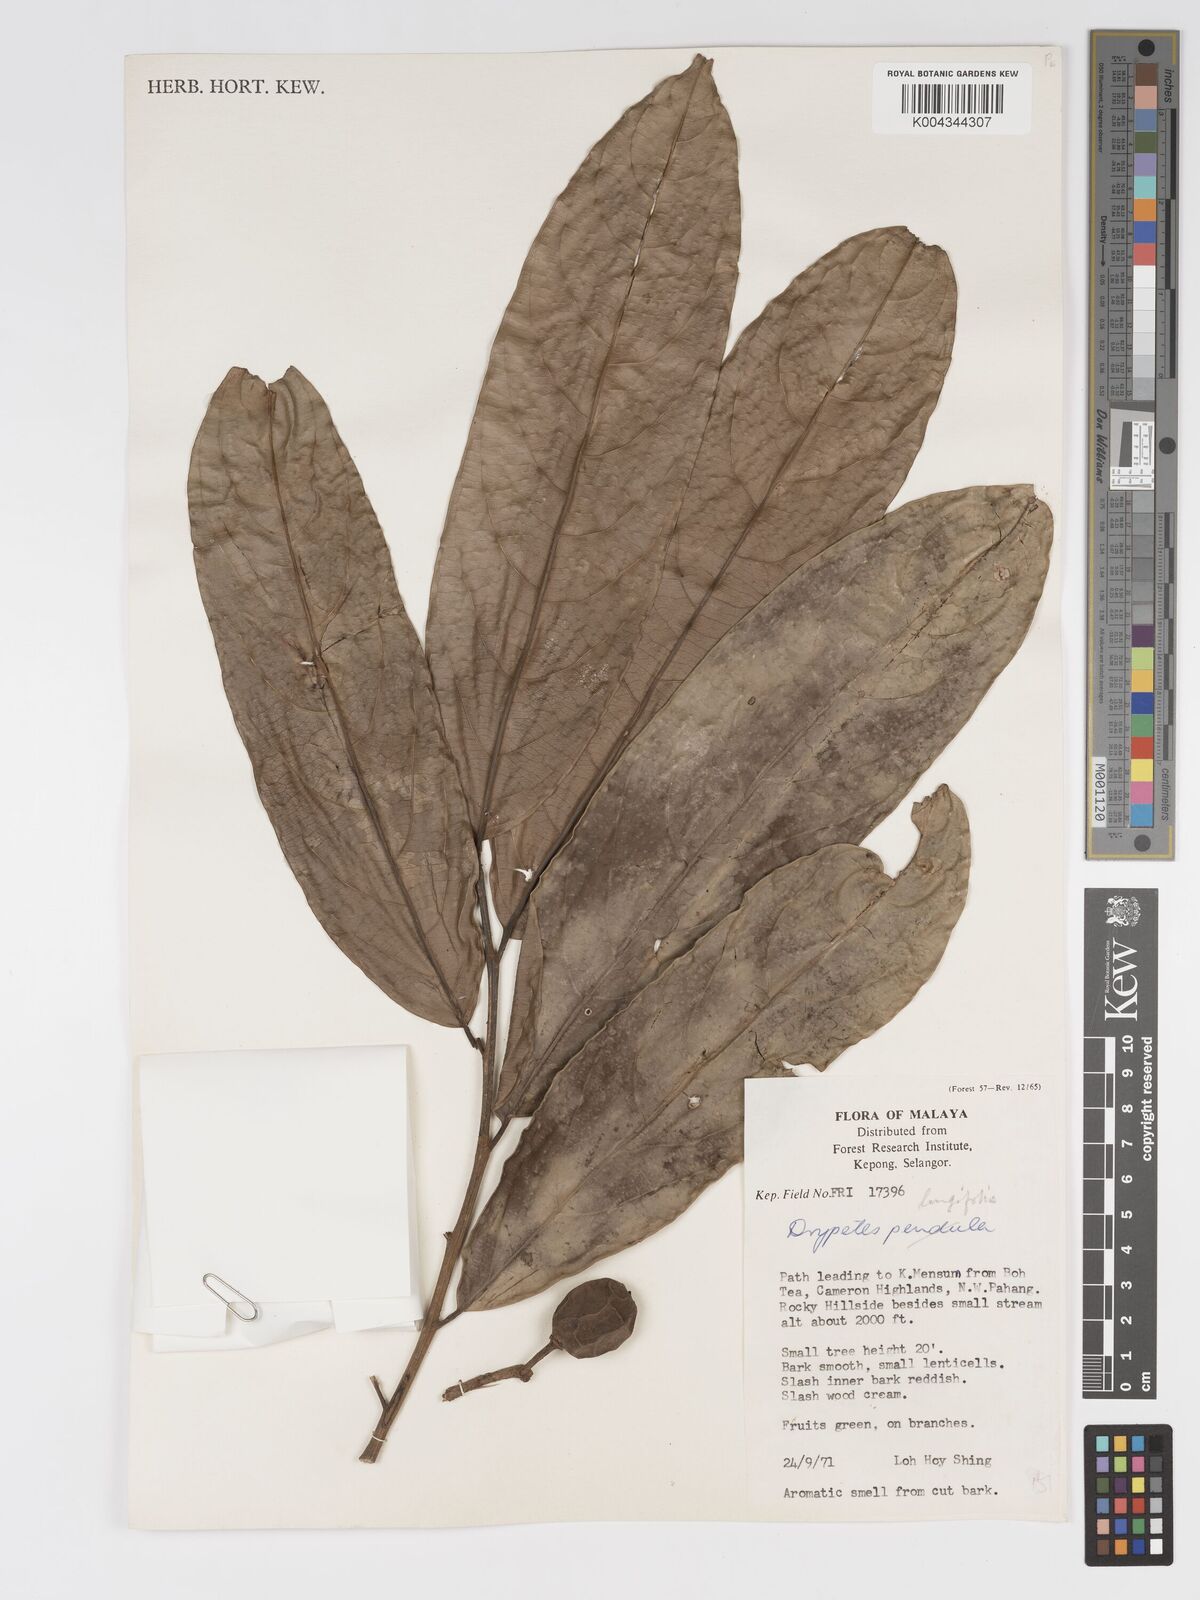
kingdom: Plantae
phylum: Tracheophyta
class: Magnoliopsida
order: Malpighiales
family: Putranjivaceae
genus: Drypetes
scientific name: Drypetes longifolia
